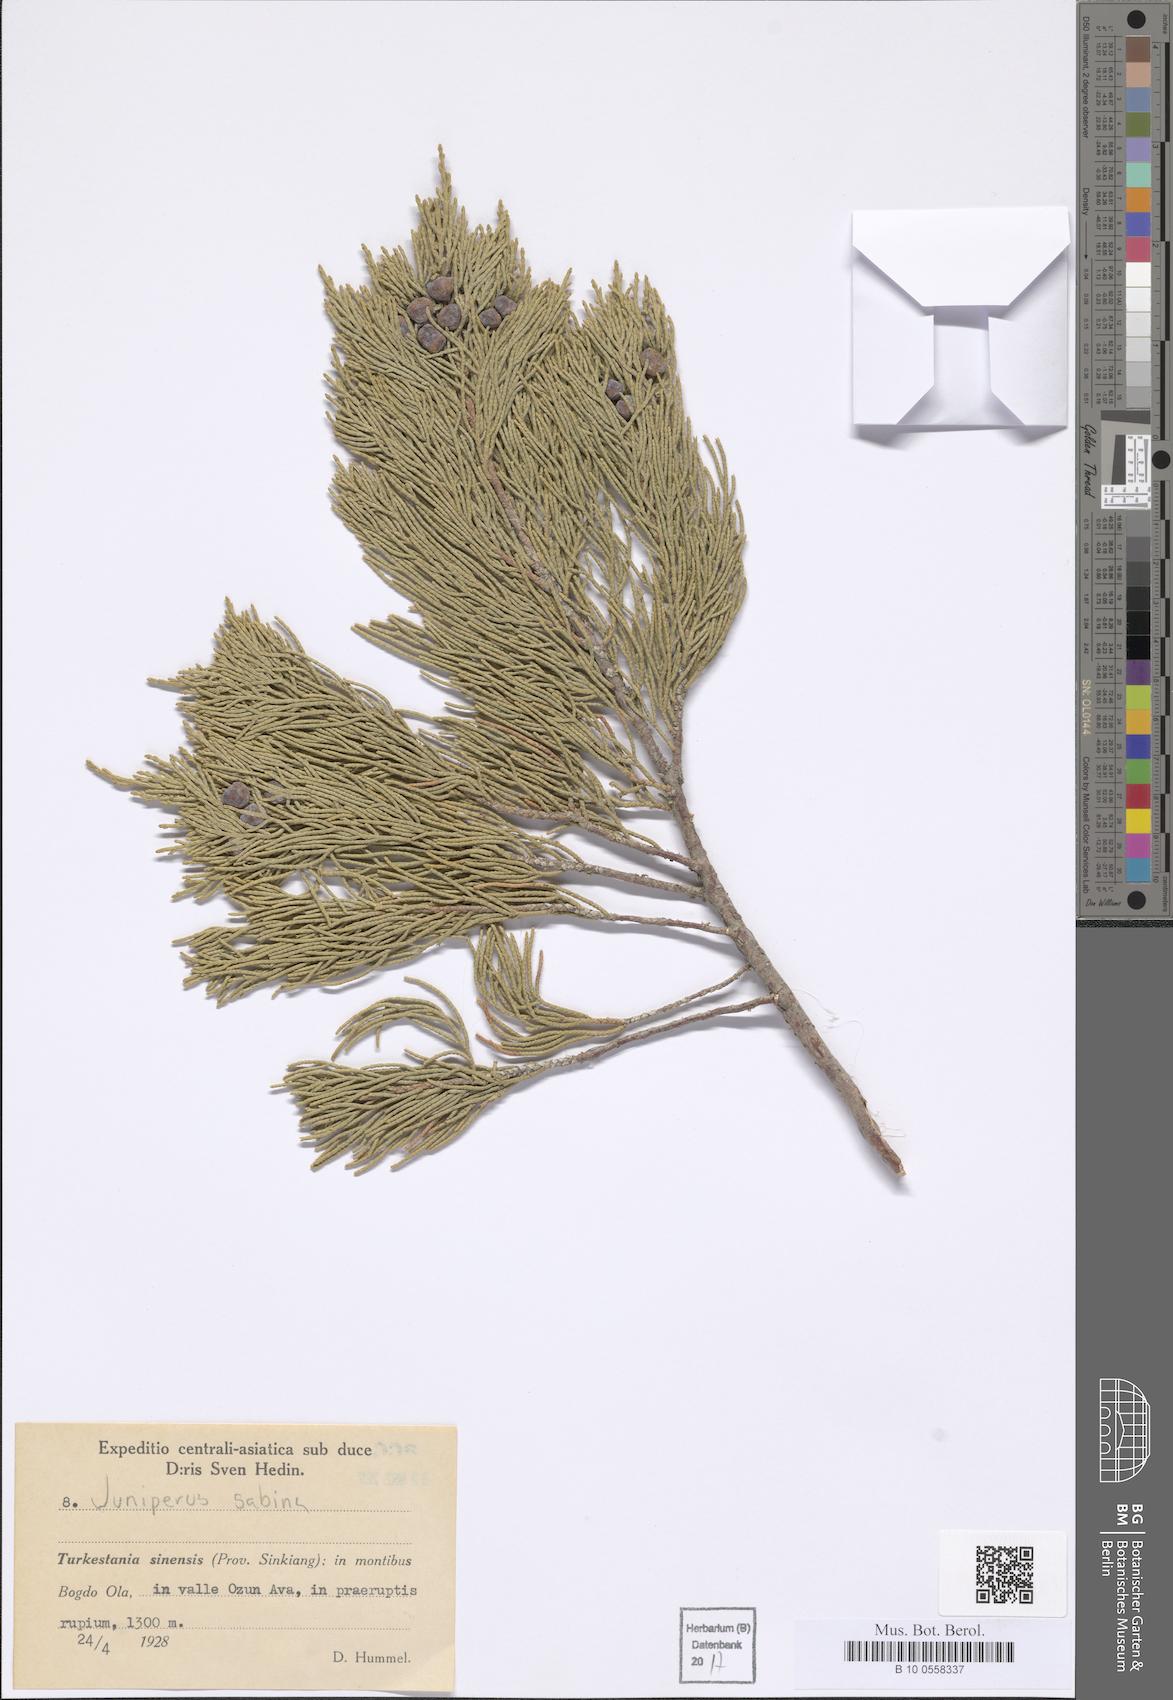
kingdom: Plantae
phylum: Tracheophyta
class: Pinopsida
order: Pinales
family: Cupressaceae
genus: Juniperus
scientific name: Juniperus sabina
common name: Savin
